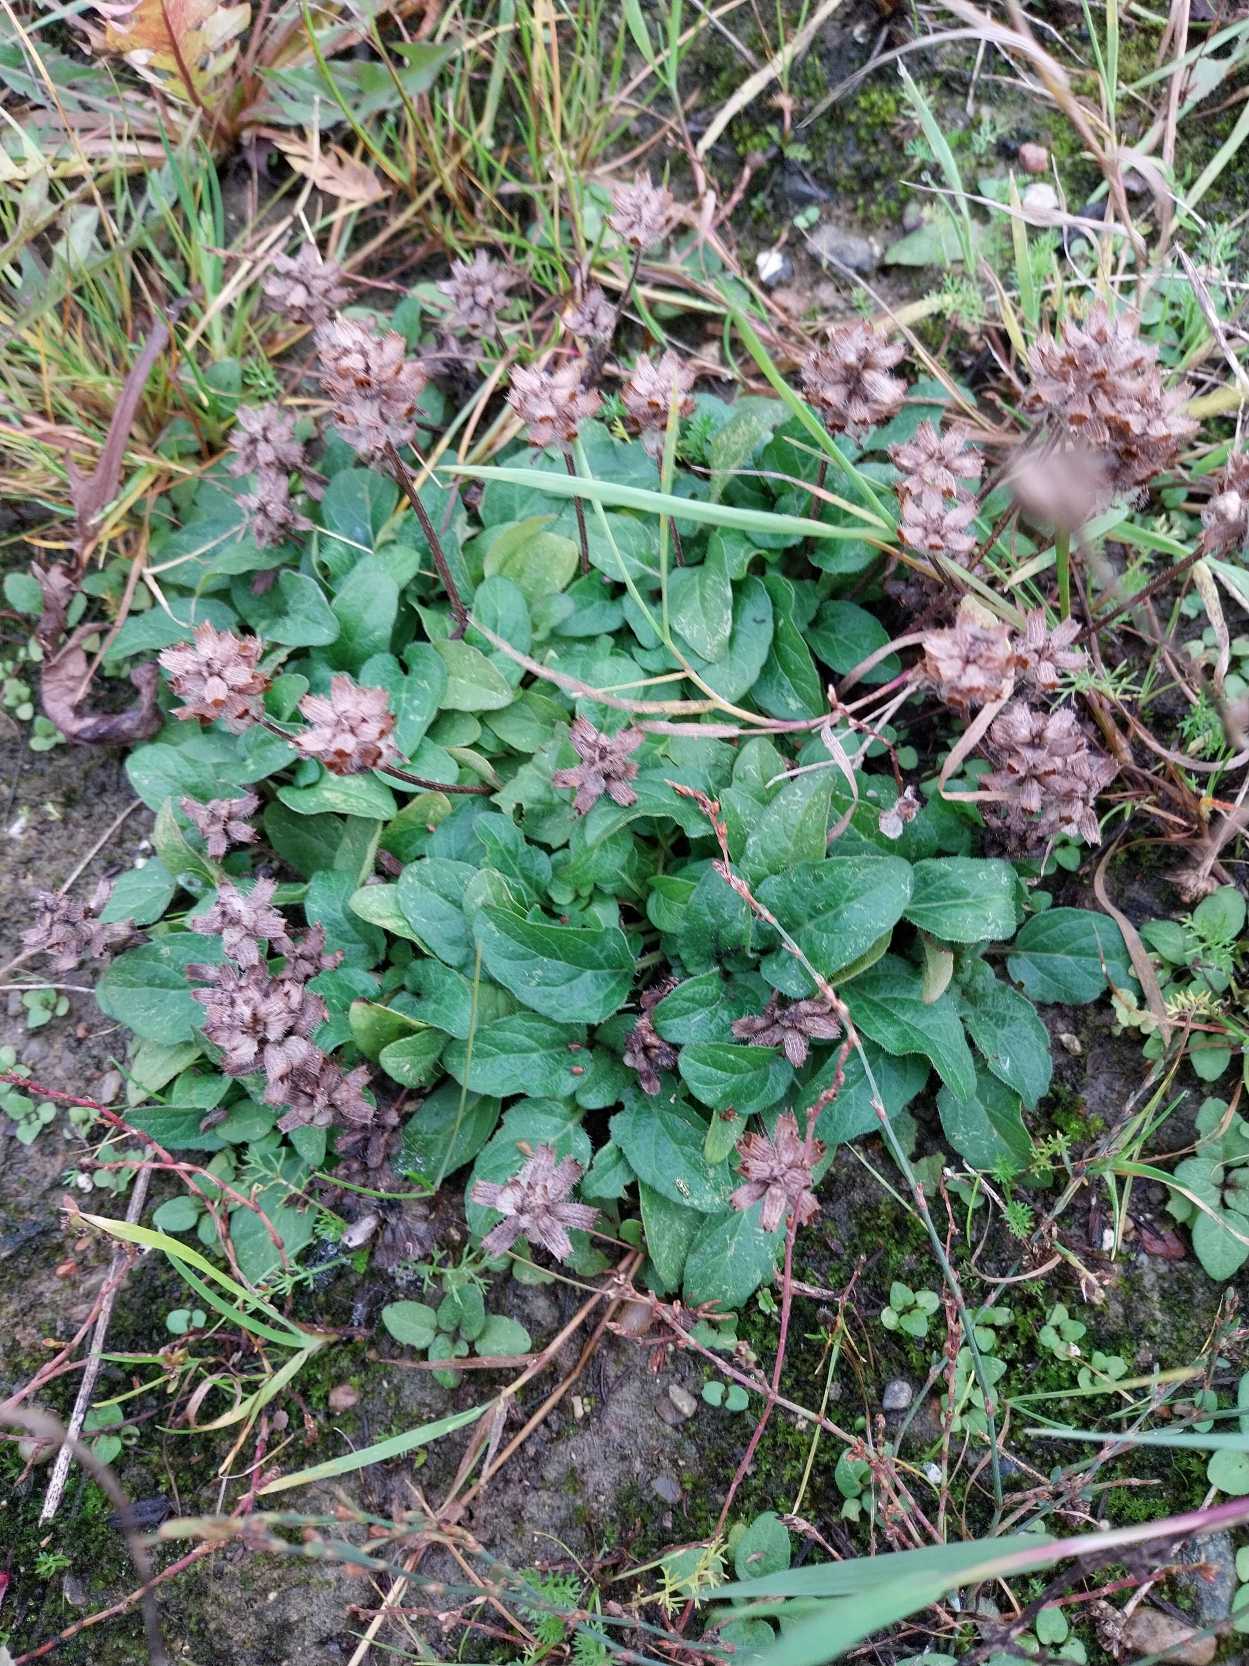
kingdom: Plantae
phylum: Tracheophyta
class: Magnoliopsida
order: Lamiales
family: Lamiaceae
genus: Prunella
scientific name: Prunella vulgaris
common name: Almindelig brunelle
